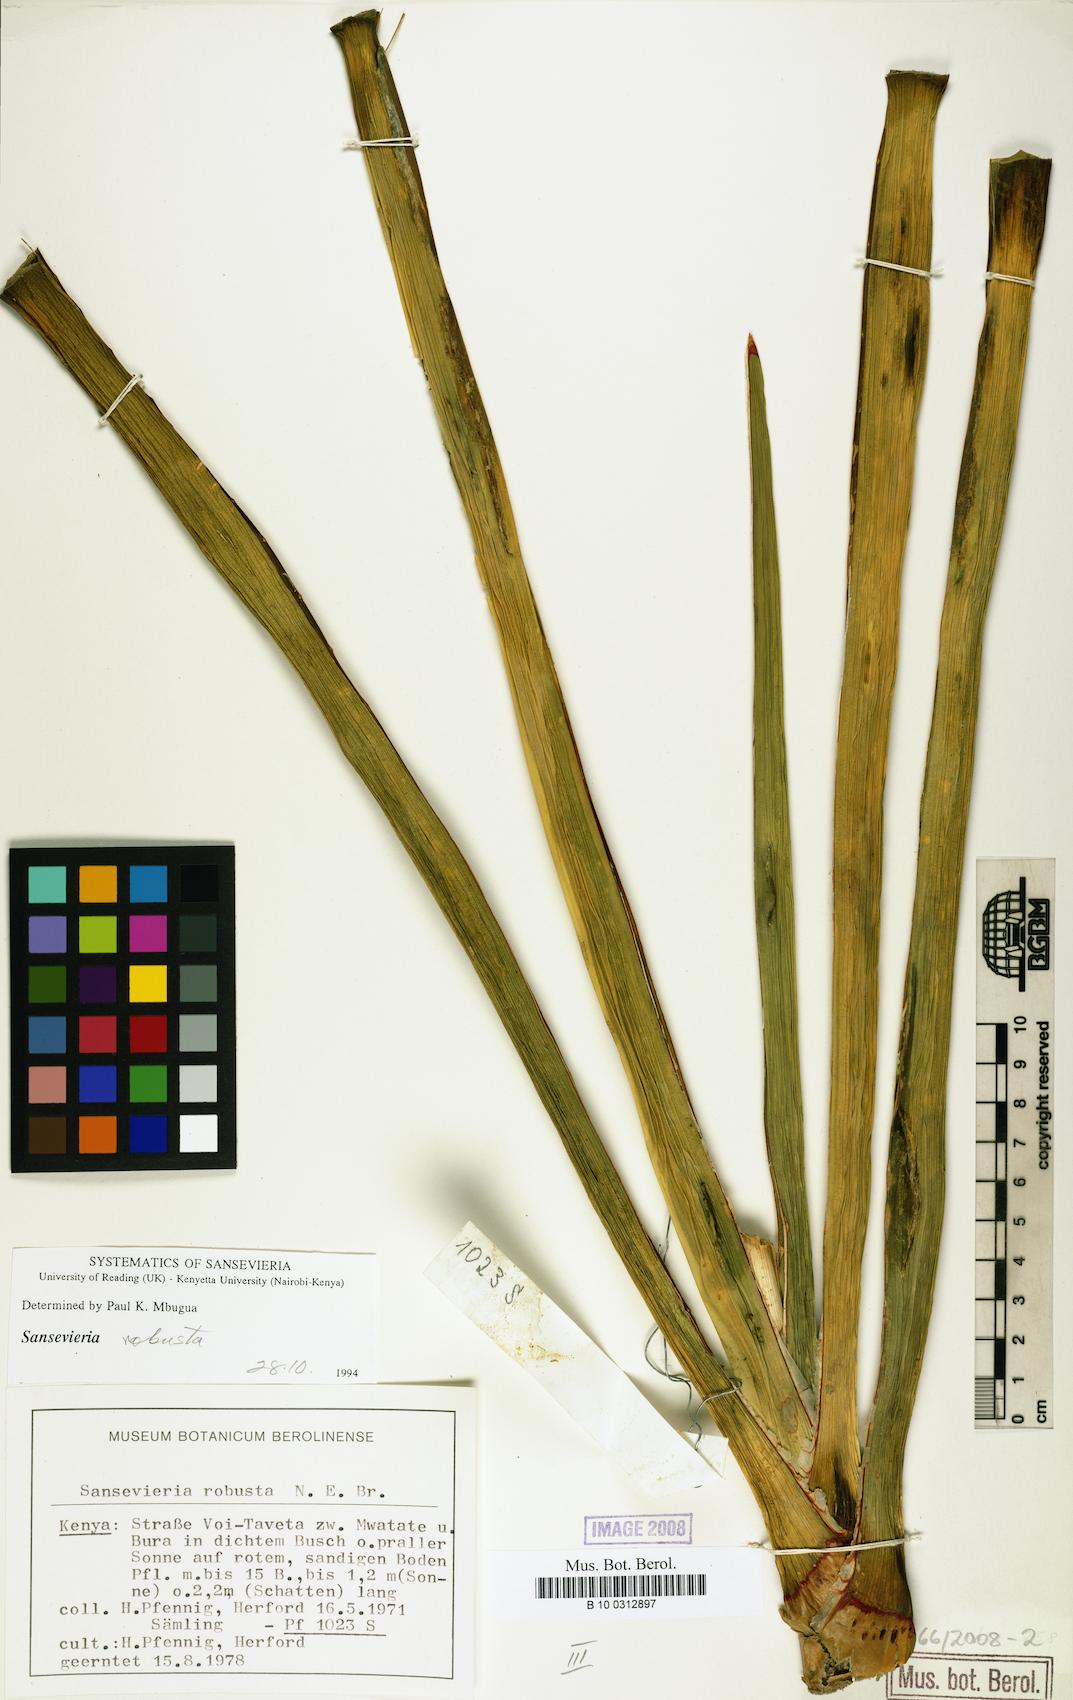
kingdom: Plantae
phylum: Tracheophyta
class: Liliopsida
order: Asparagales
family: Asparagaceae
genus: Dracaena
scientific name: Dracaena perrotii
